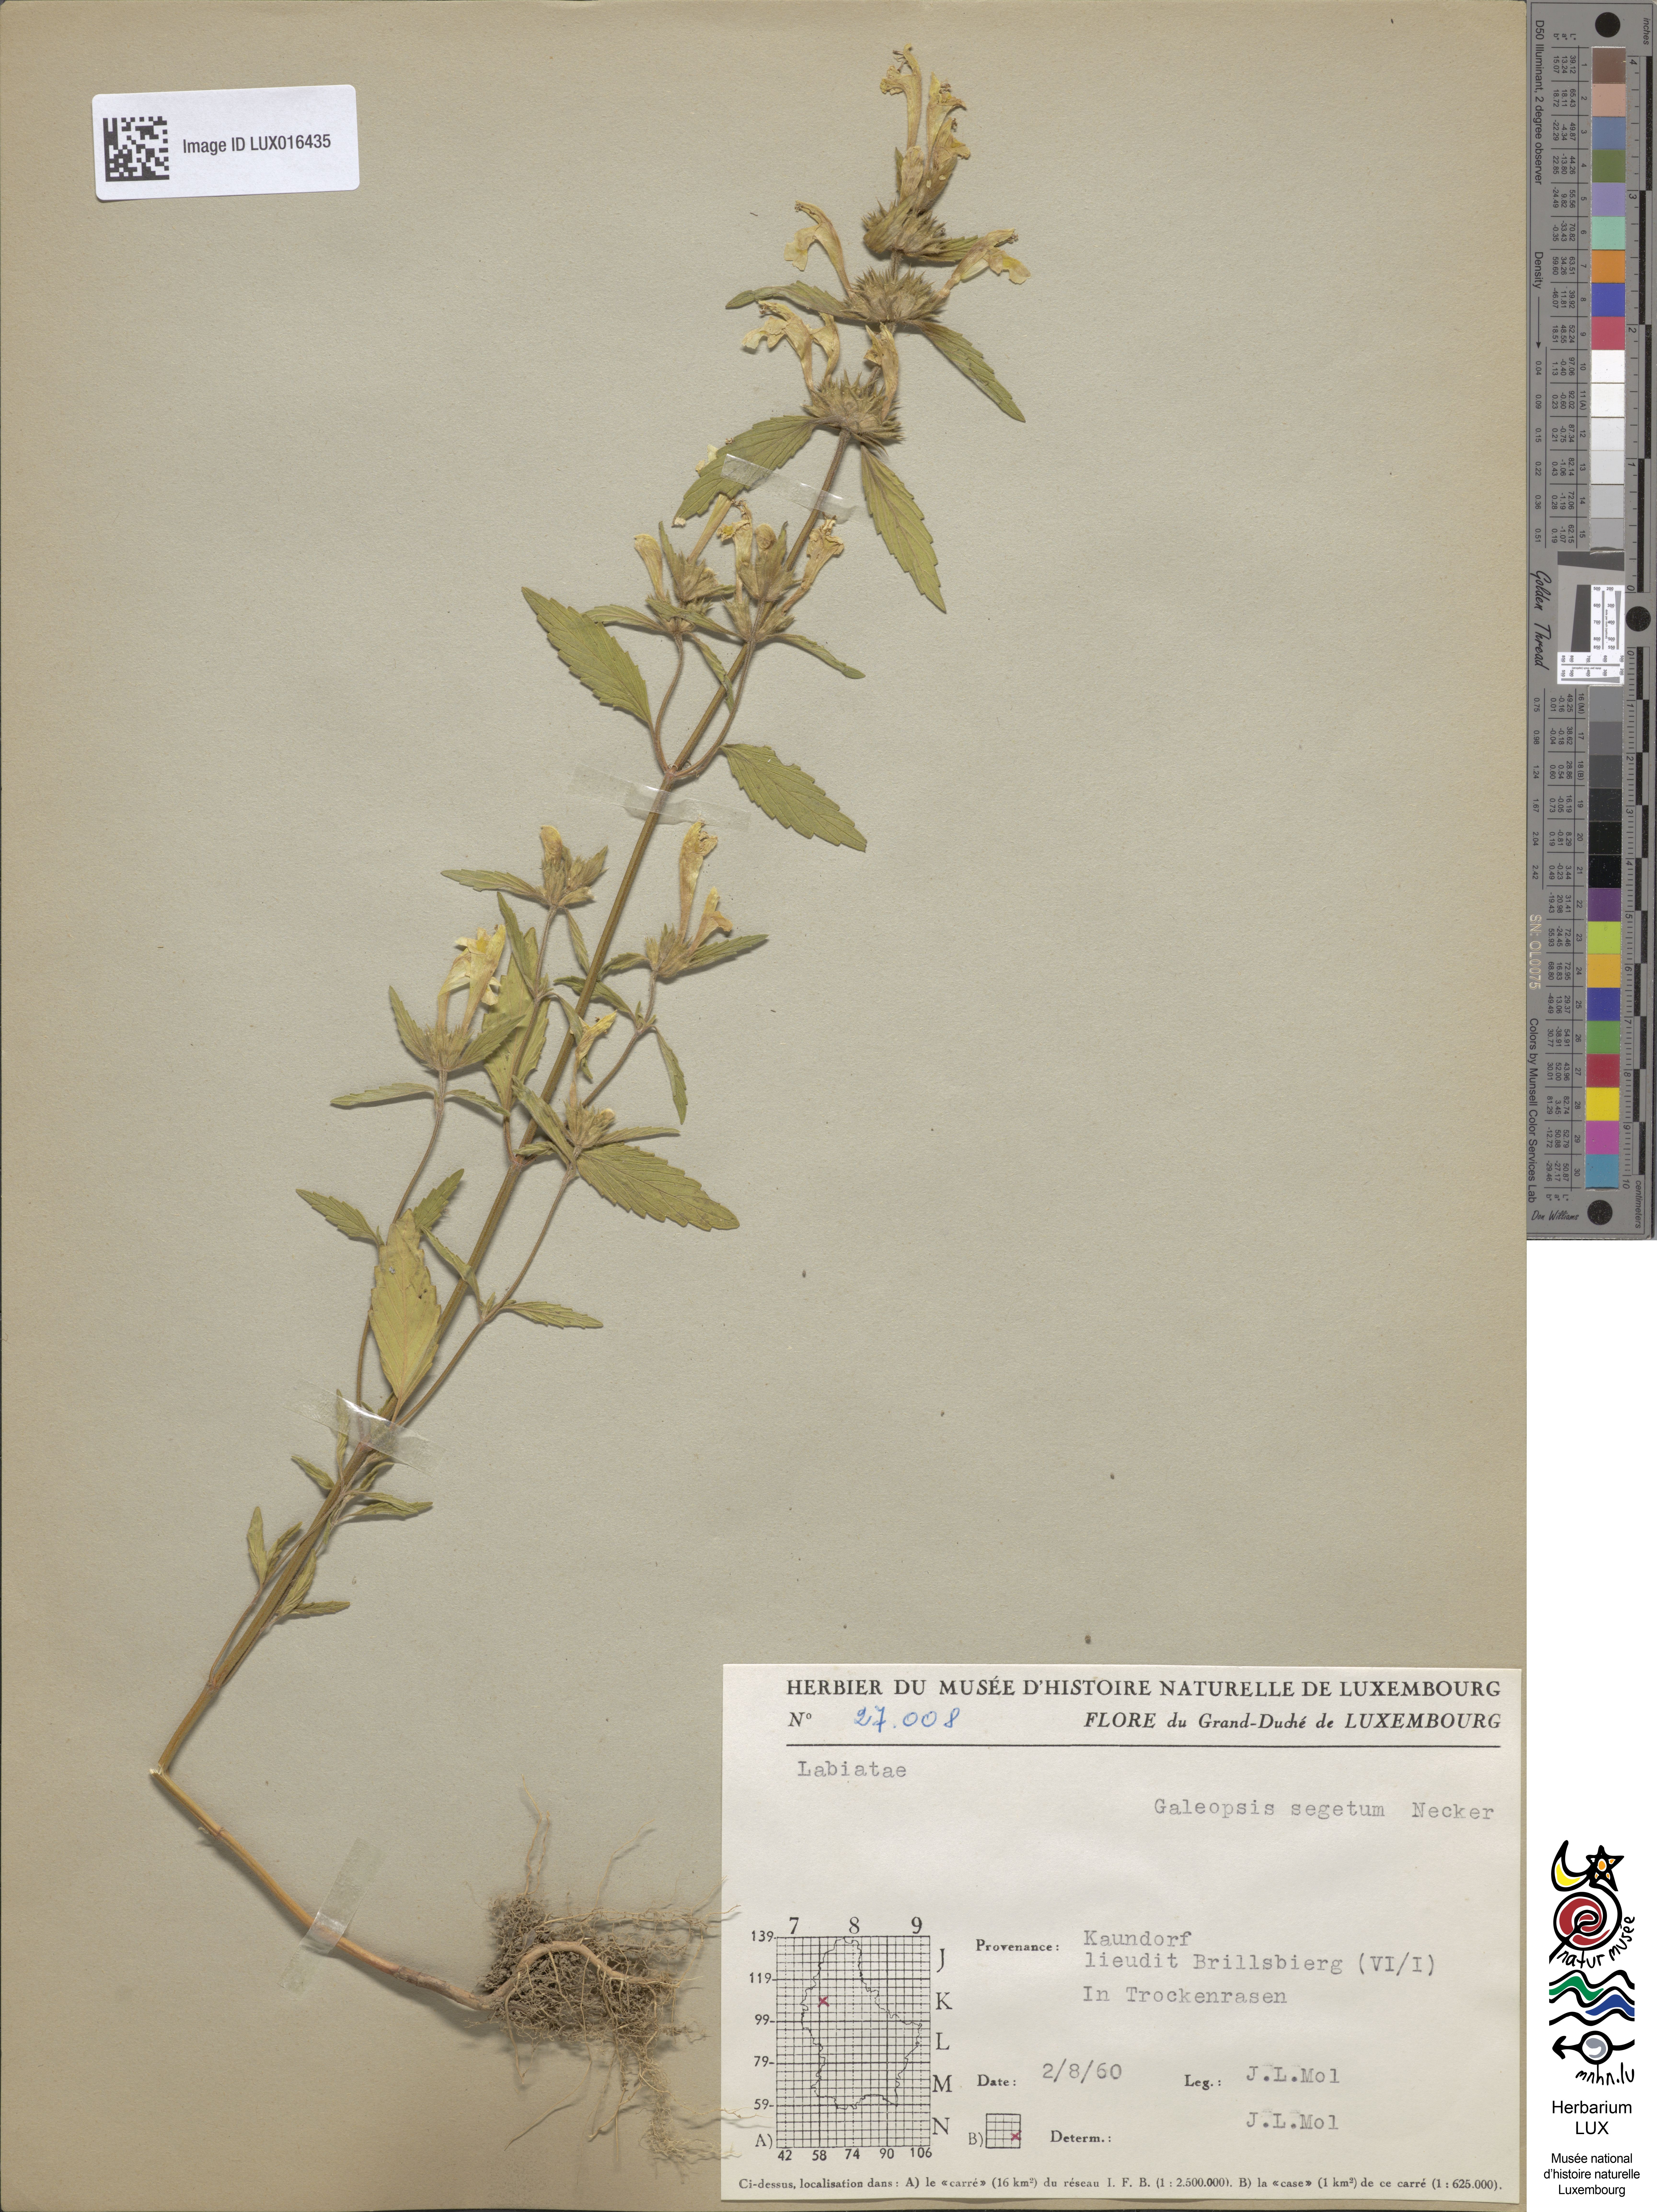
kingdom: Plantae
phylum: Tracheophyta
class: Magnoliopsida
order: Lamiales
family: Lamiaceae
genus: Galeopsis
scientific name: Galeopsis segetum
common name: Downy hemp-nettle
